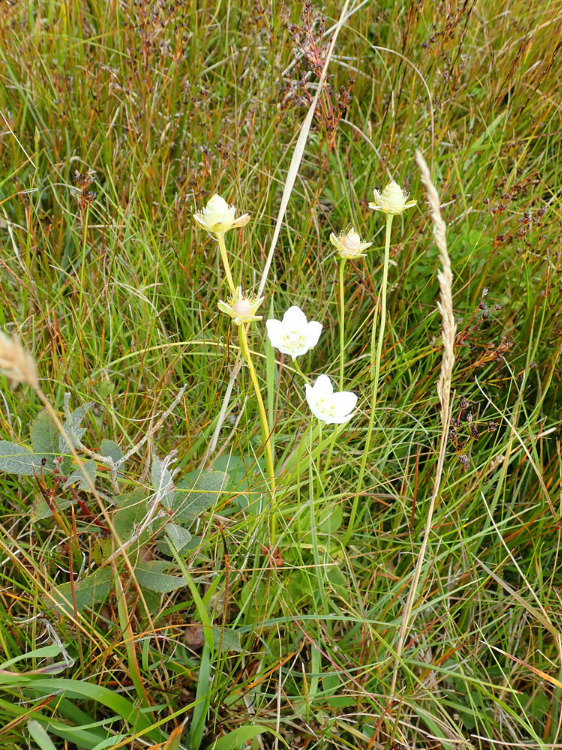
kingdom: Plantae
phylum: Tracheophyta
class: Magnoliopsida
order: Celastrales
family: Parnassiaceae
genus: Parnassia
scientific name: Parnassia palustris
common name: Leverurt
